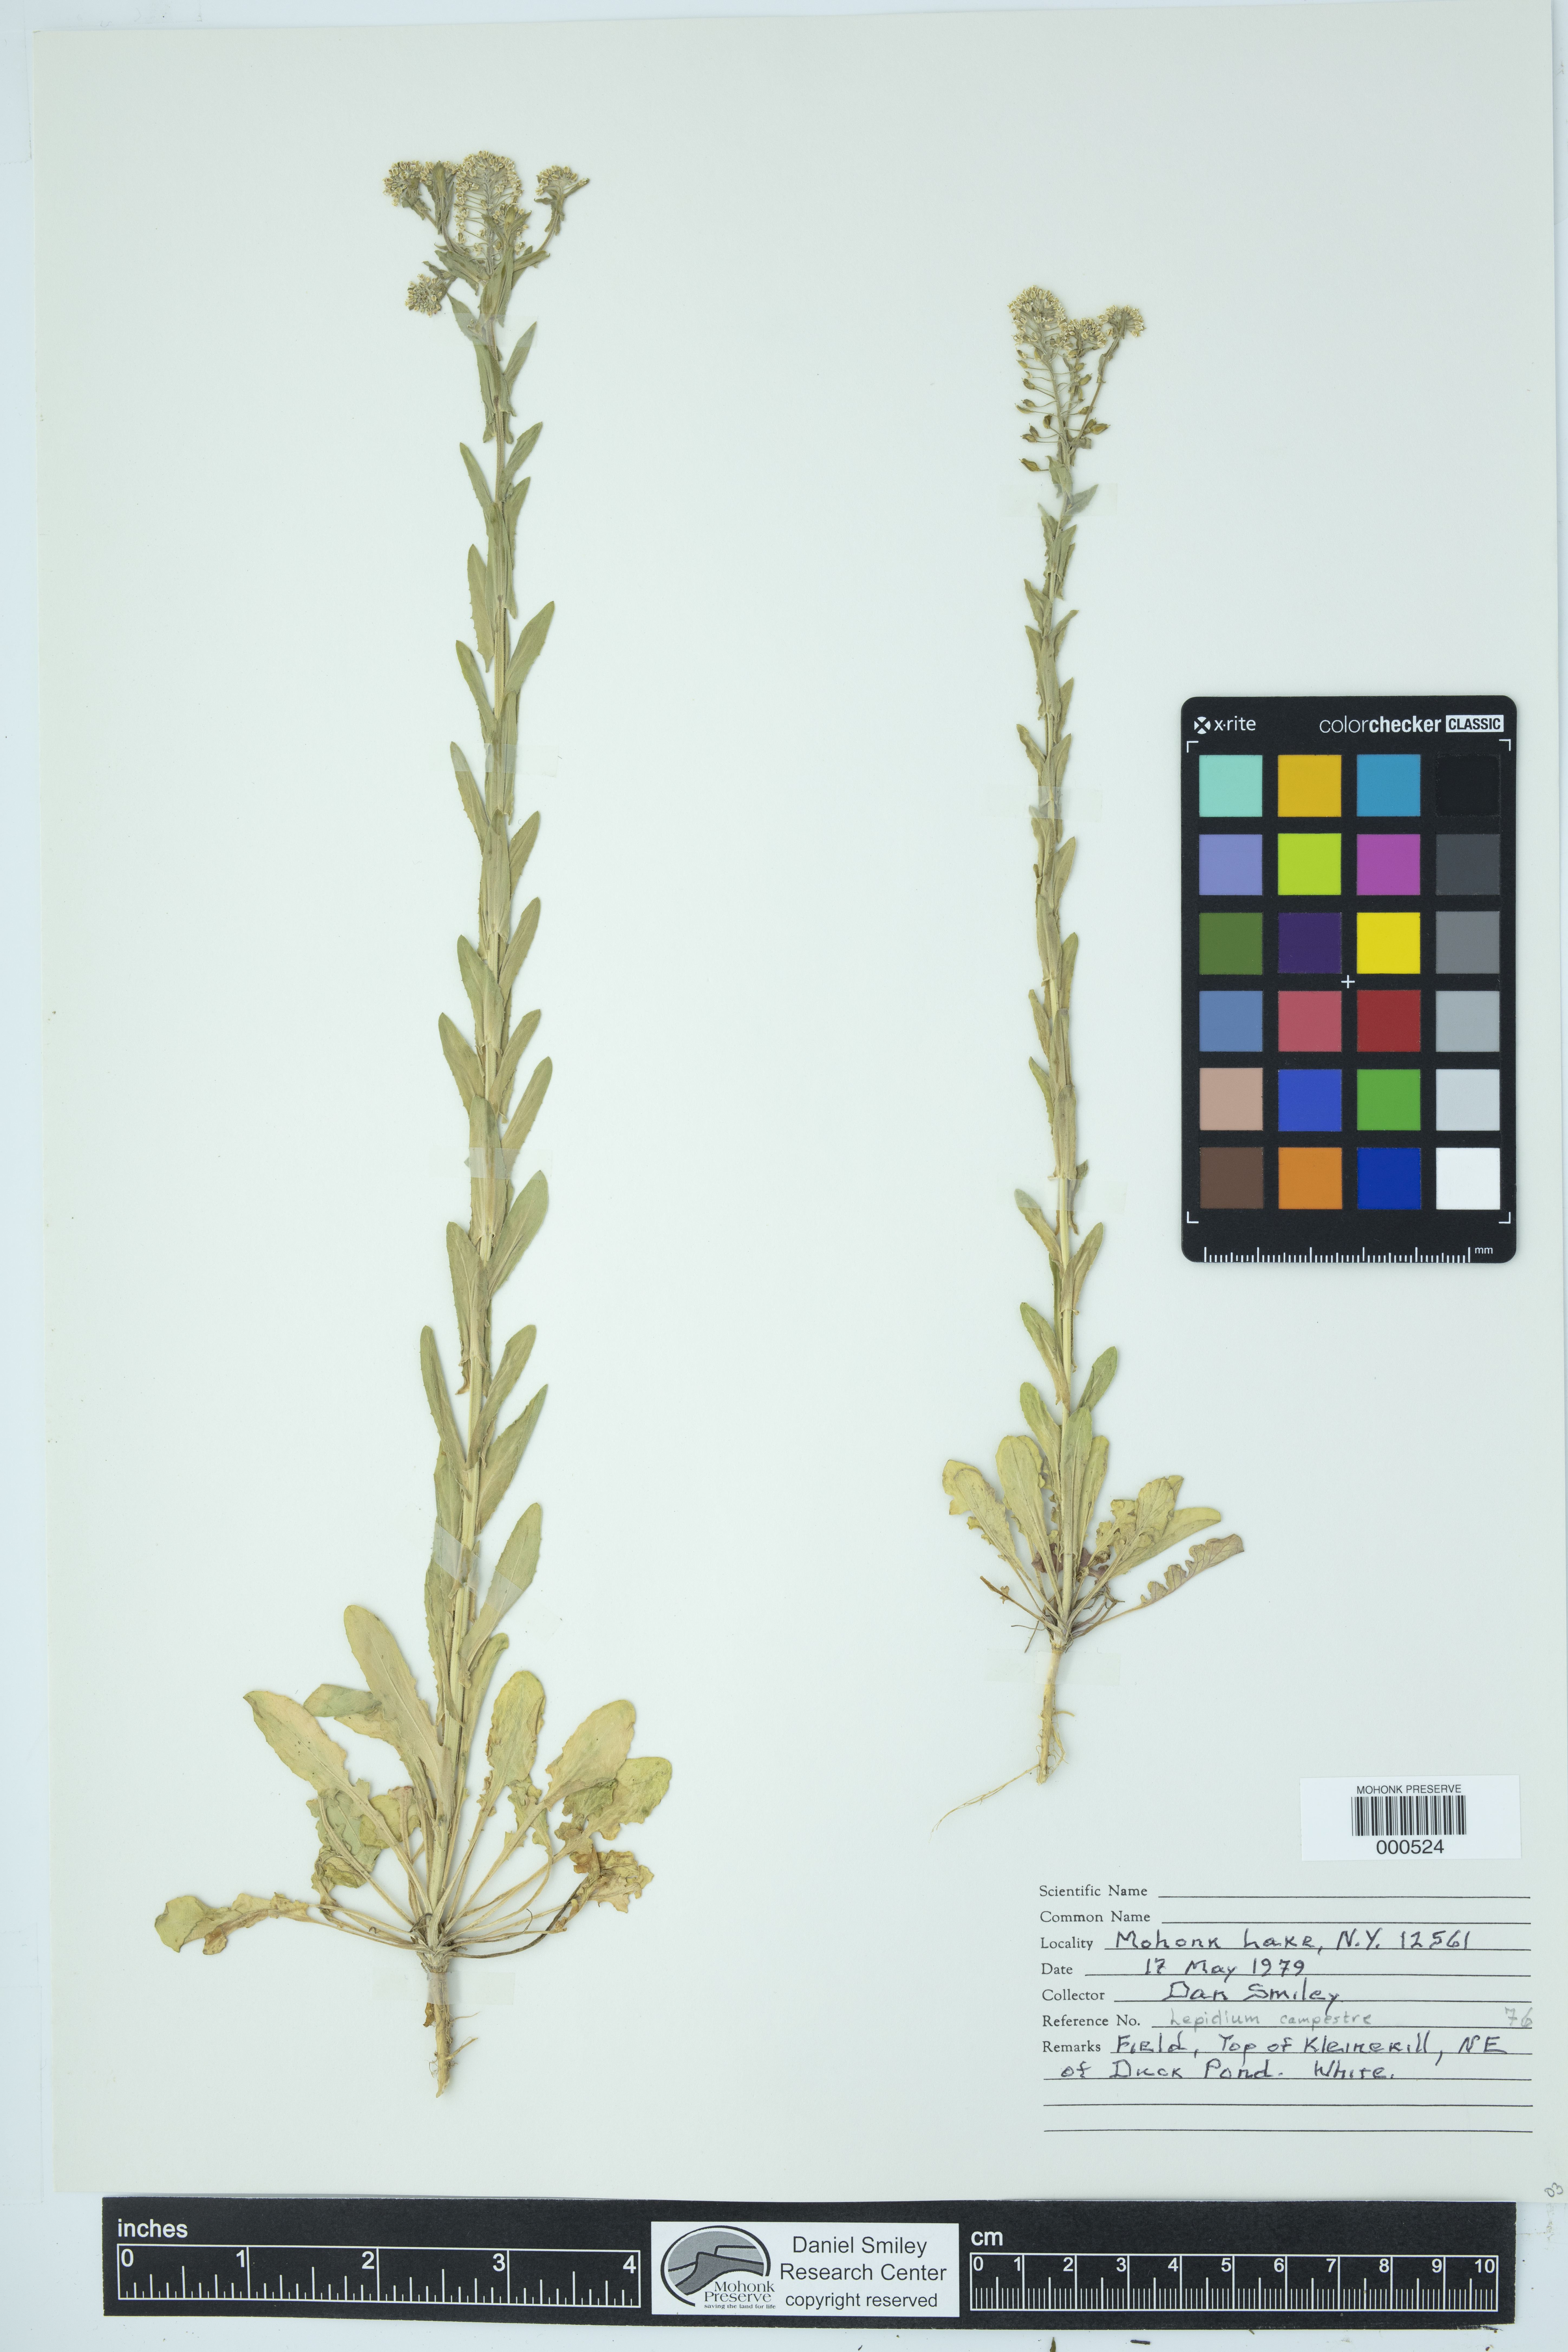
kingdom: Plantae
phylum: Tracheophyta
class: Magnoliopsida
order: Brassicales
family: Brassicaceae
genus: Lepidium
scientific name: Lepidium campestre
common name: Field pepperwort
